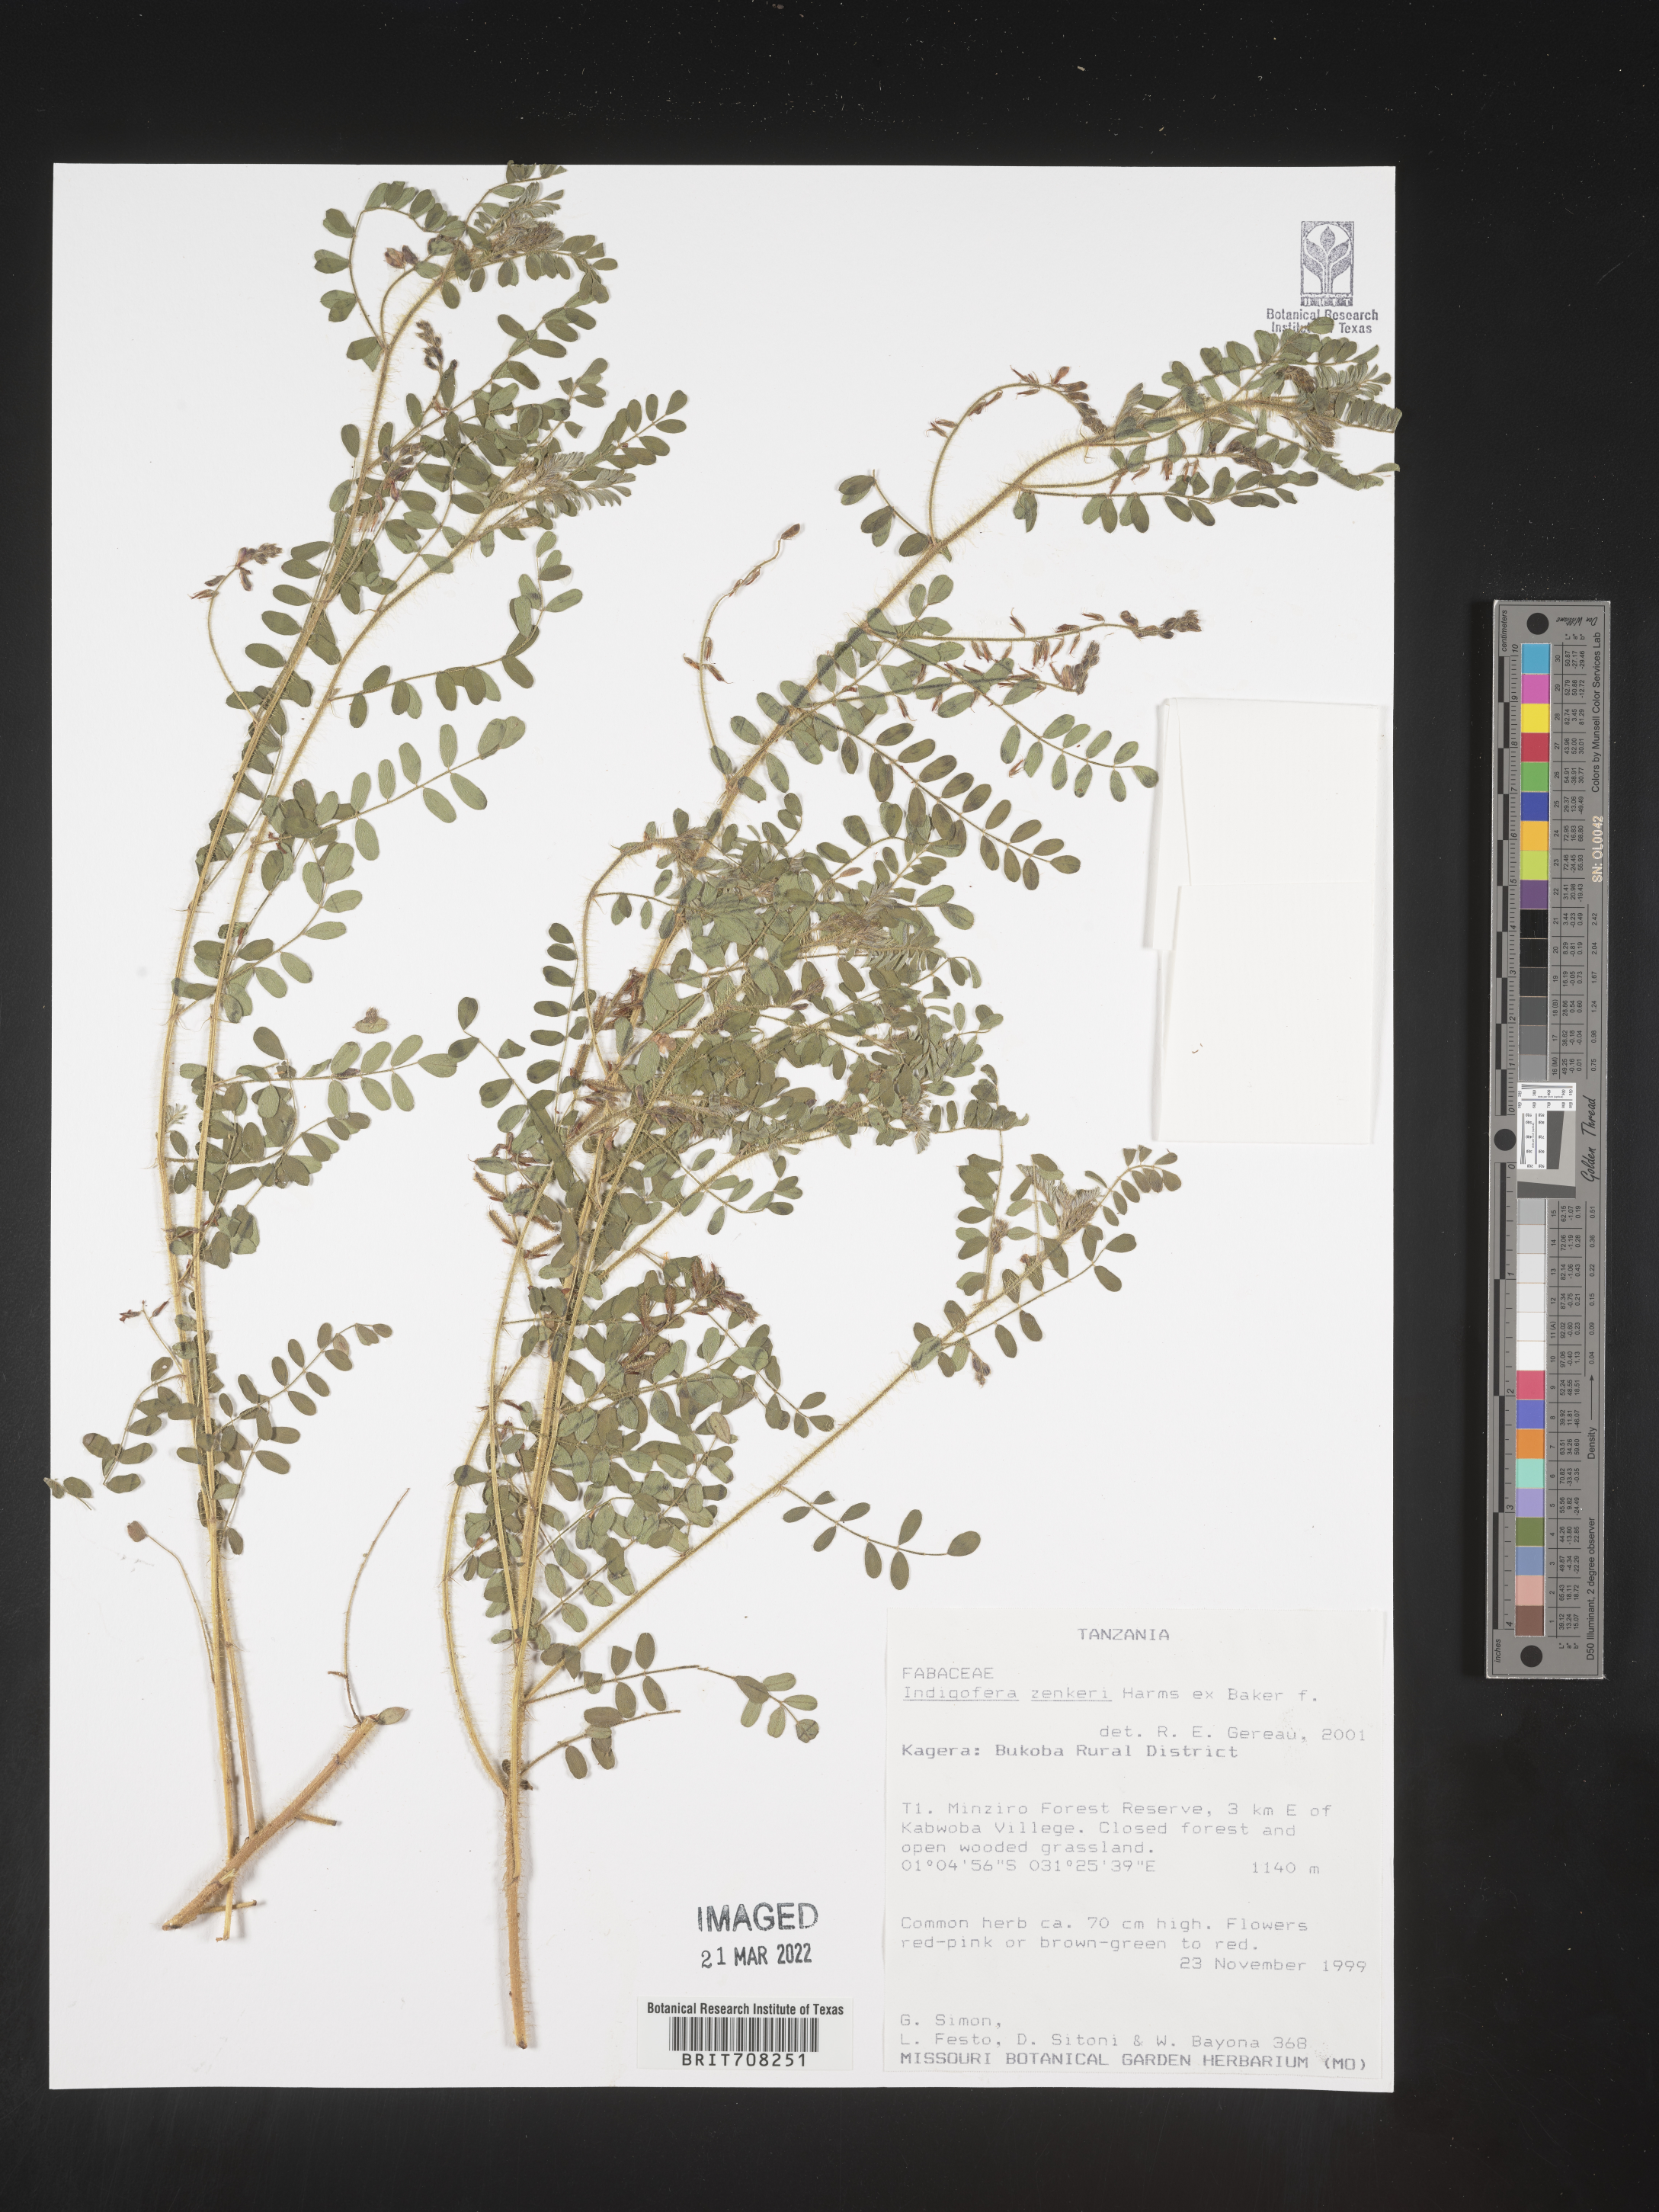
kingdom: Plantae
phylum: Tracheophyta
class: Magnoliopsida
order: Fabales
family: Fabaceae
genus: Indigofera
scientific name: Indigofera
